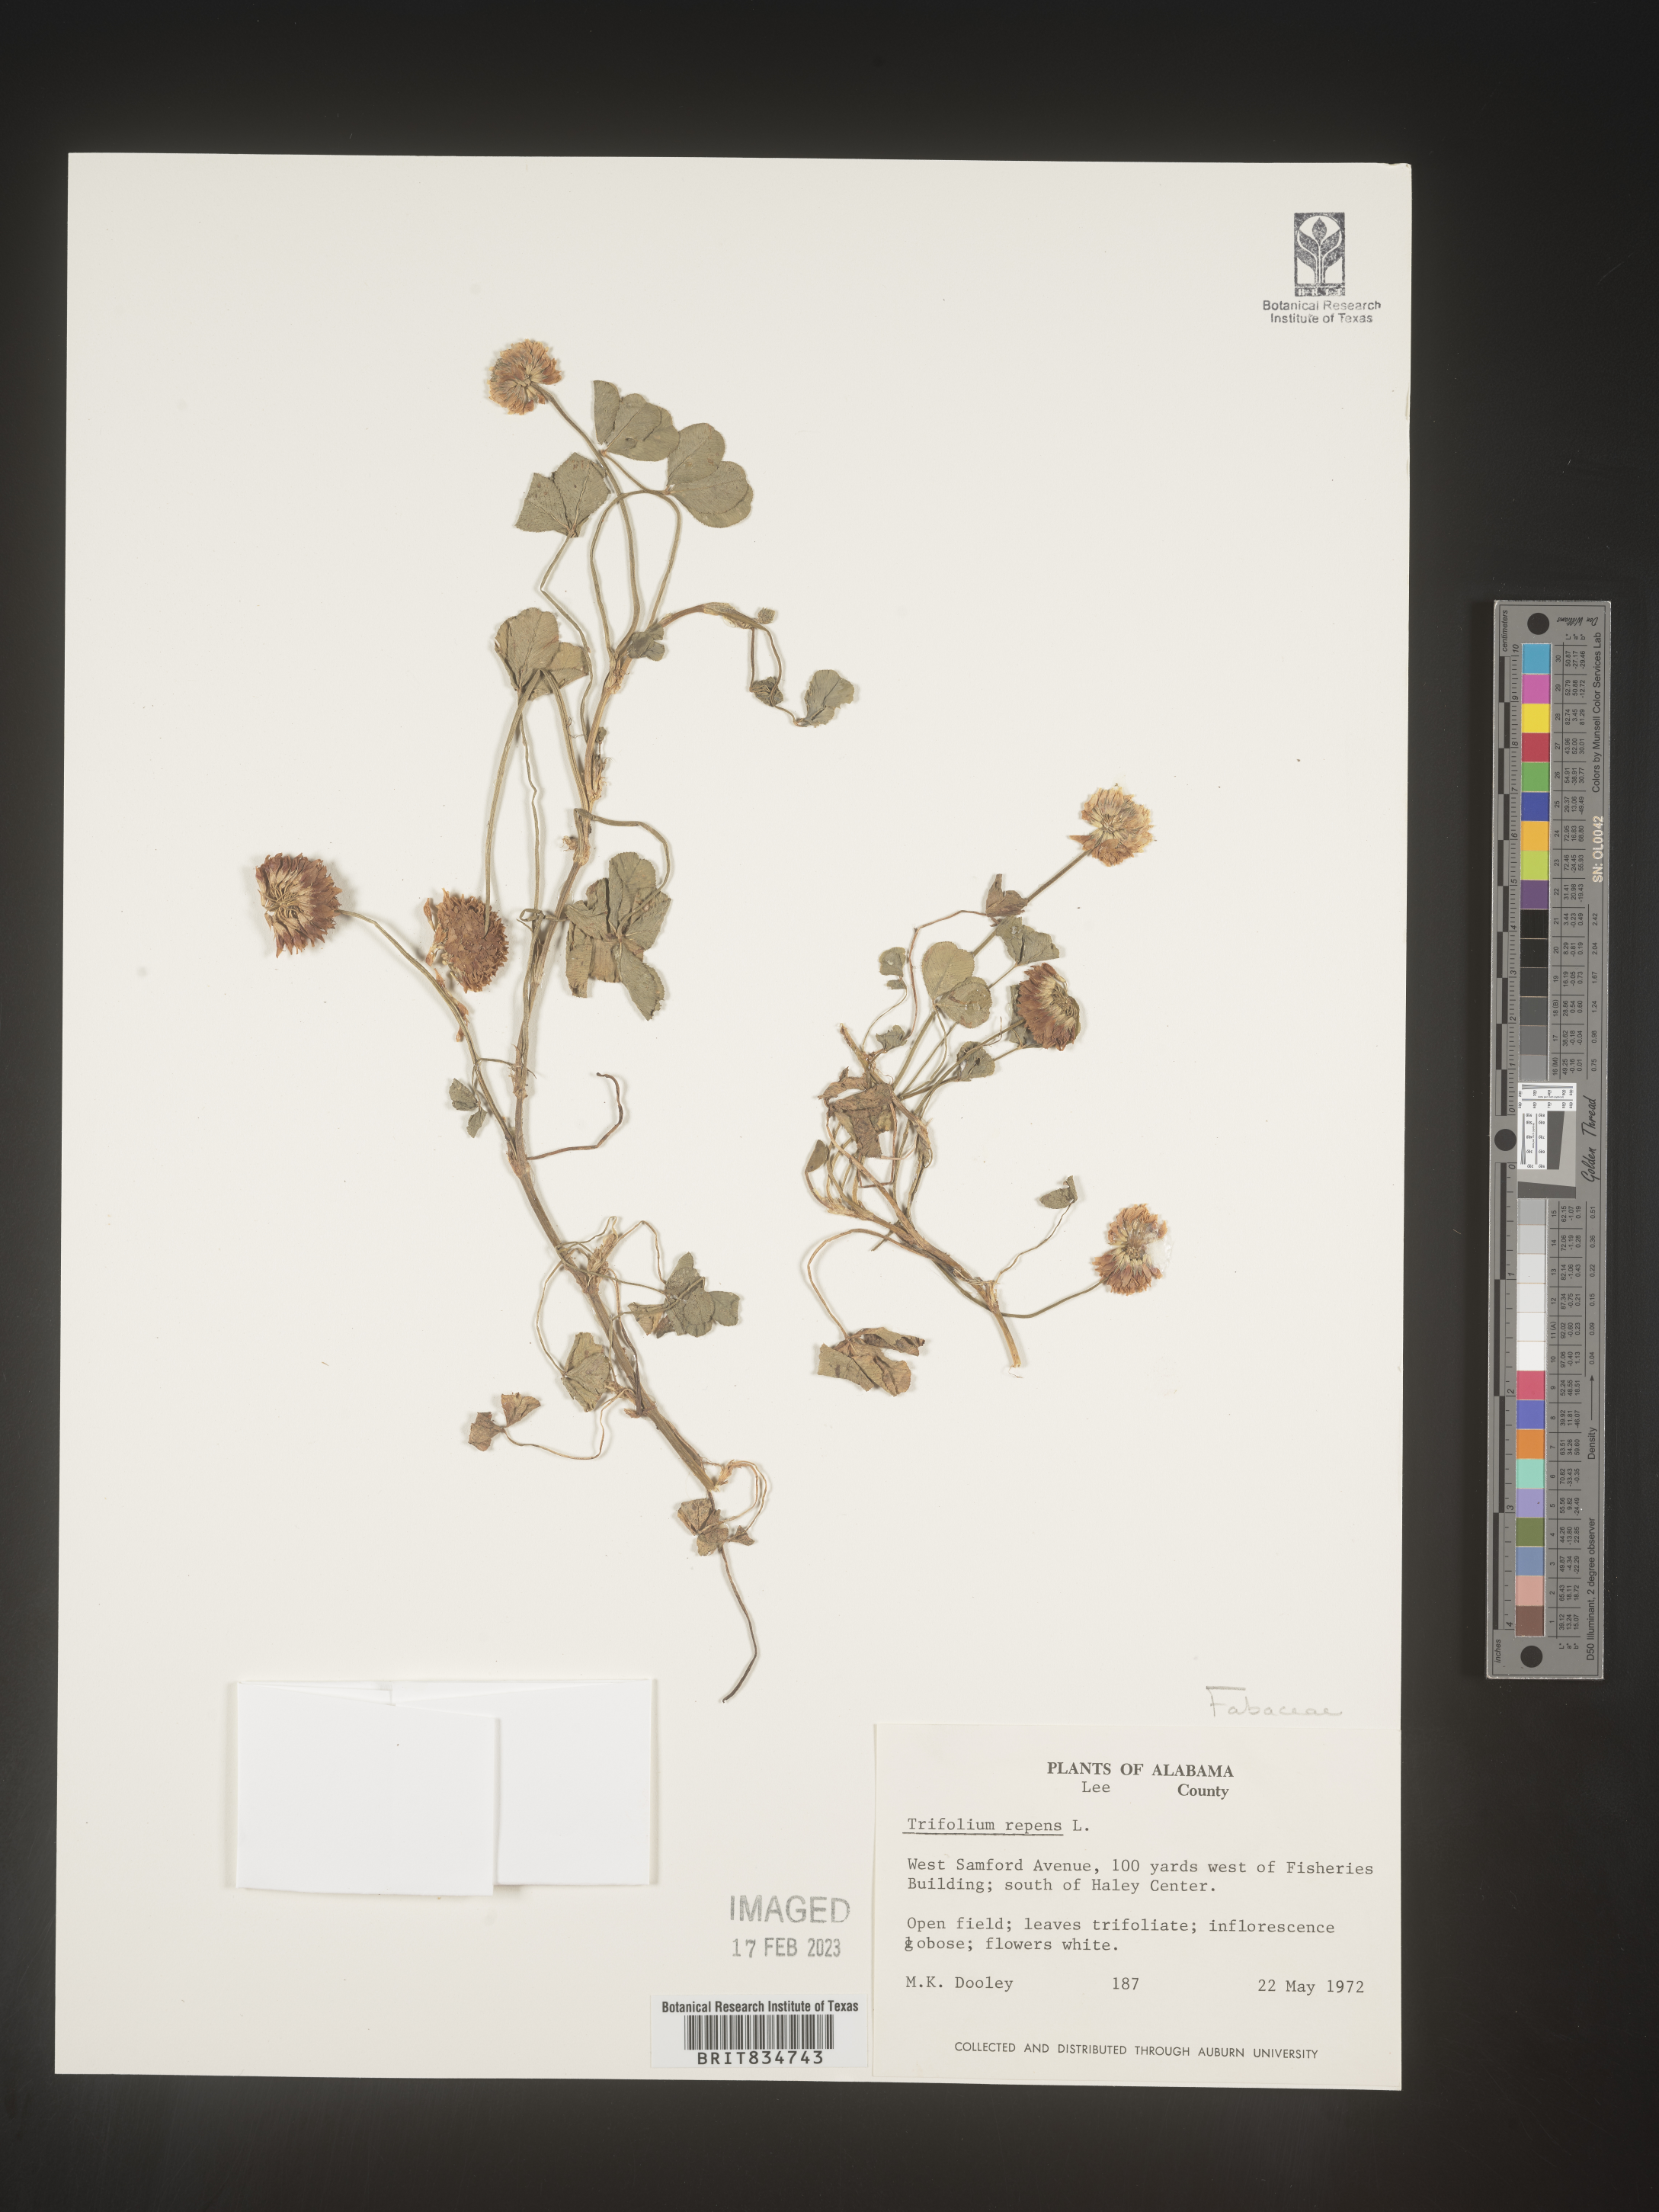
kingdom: Plantae
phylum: Tracheophyta
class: Magnoliopsida
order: Fabales
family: Fabaceae
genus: Trifolium
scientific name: Trifolium repens
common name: White clover
